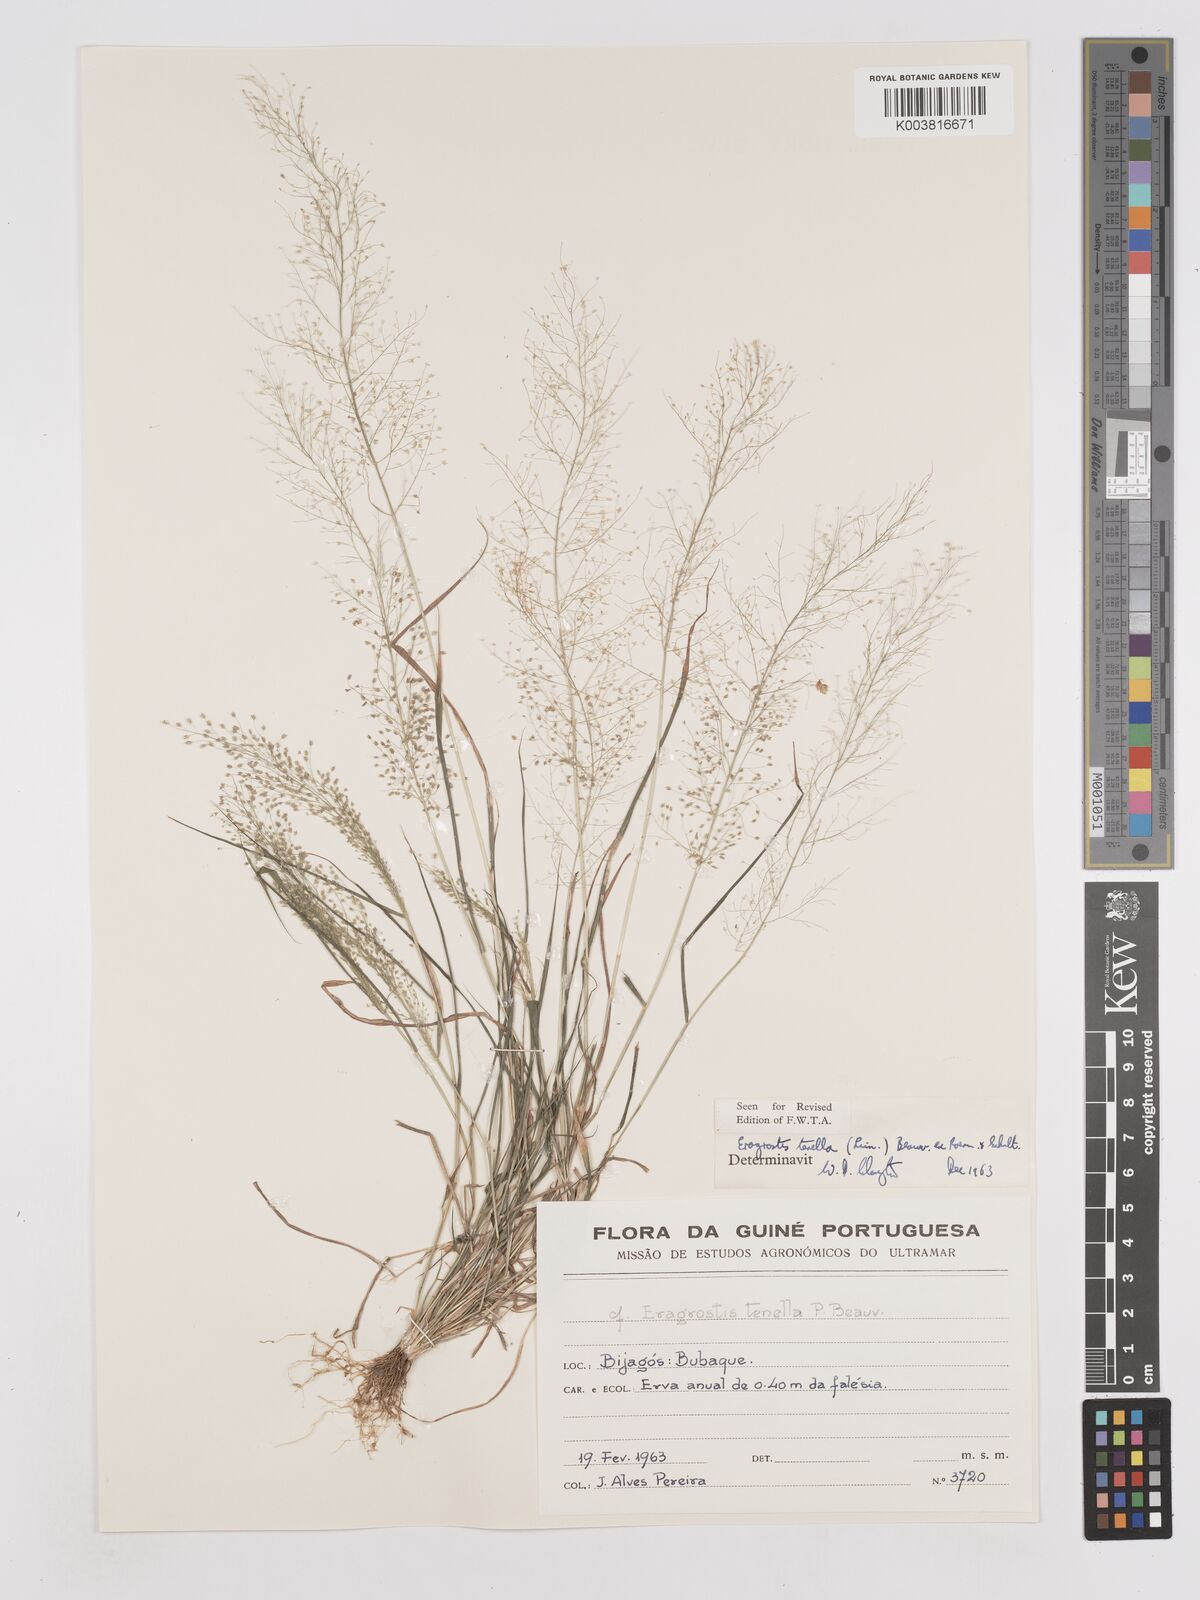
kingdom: Plantae
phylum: Tracheophyta
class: Liliopsida
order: Poales
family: Poaceae
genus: Eragrostis
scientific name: Eragrostis tenella
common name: Japanese lovegrass
